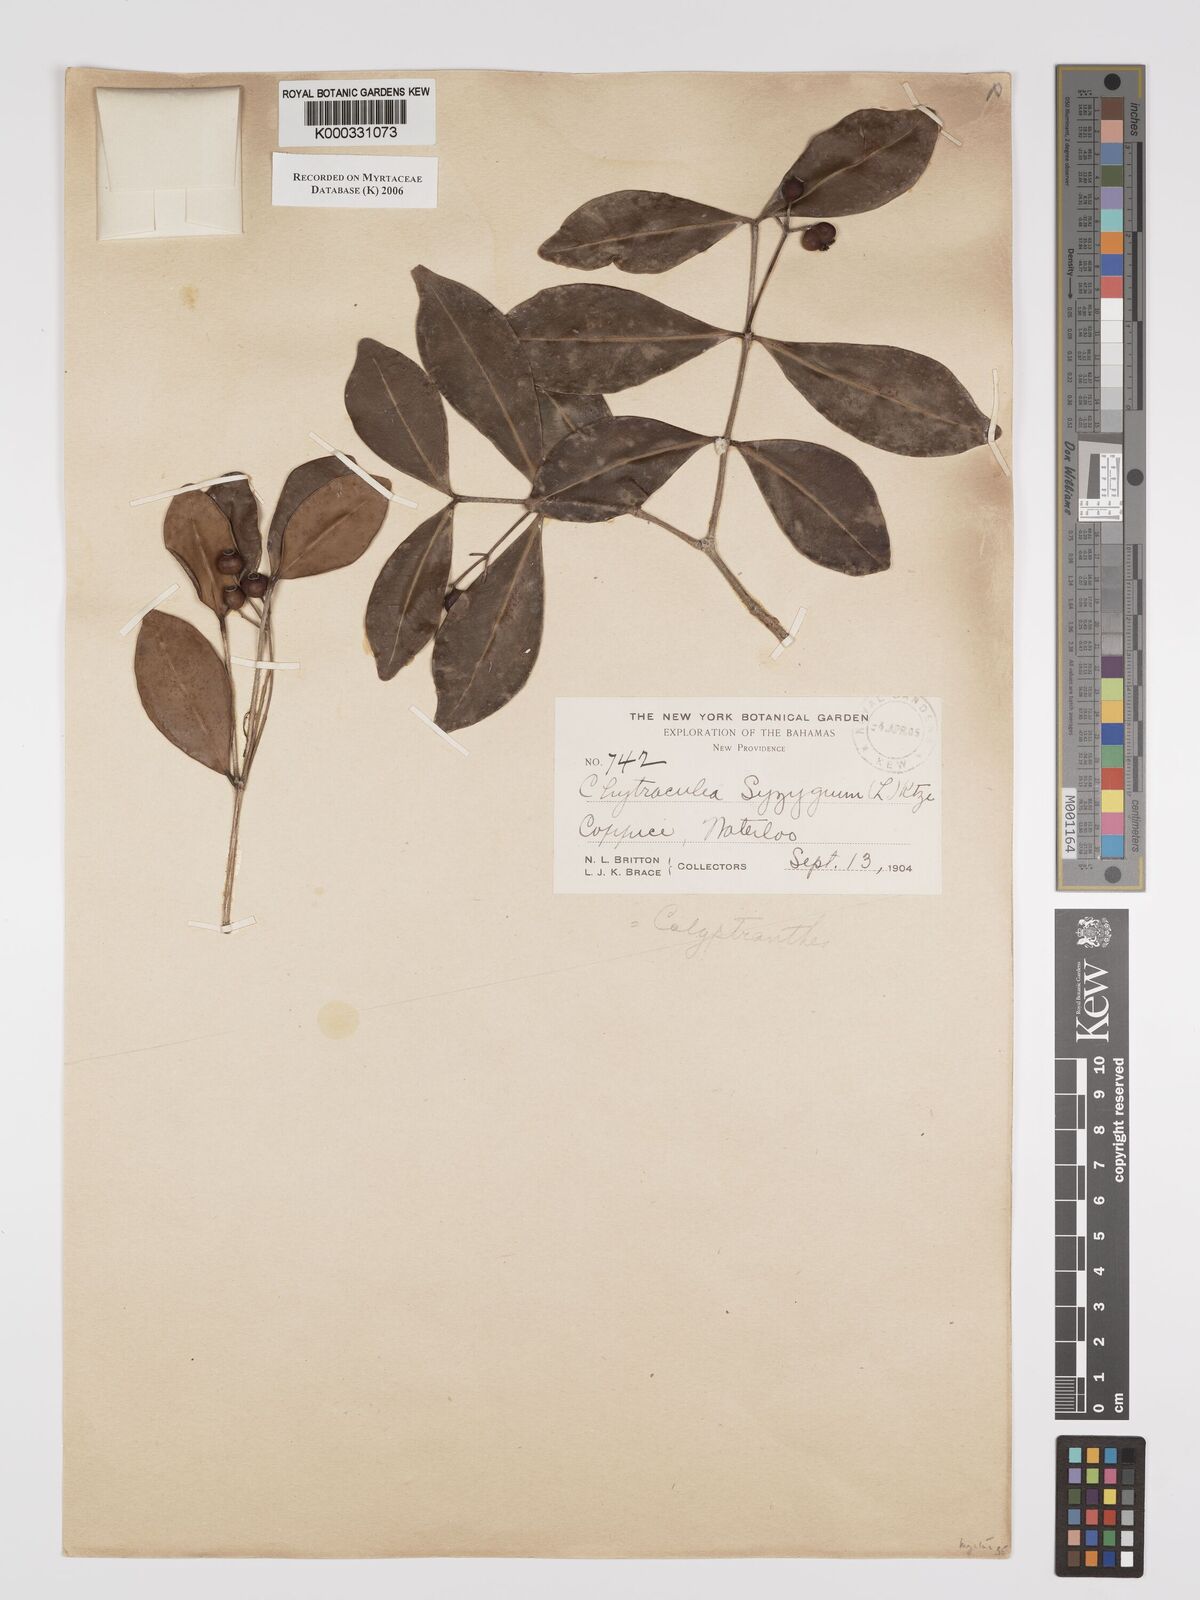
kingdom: Plantae
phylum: Tracheophyta
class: Magnoliopsida
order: Myrtales
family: Myrtaceae
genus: Myrcia
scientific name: Myrcia chytraculia
